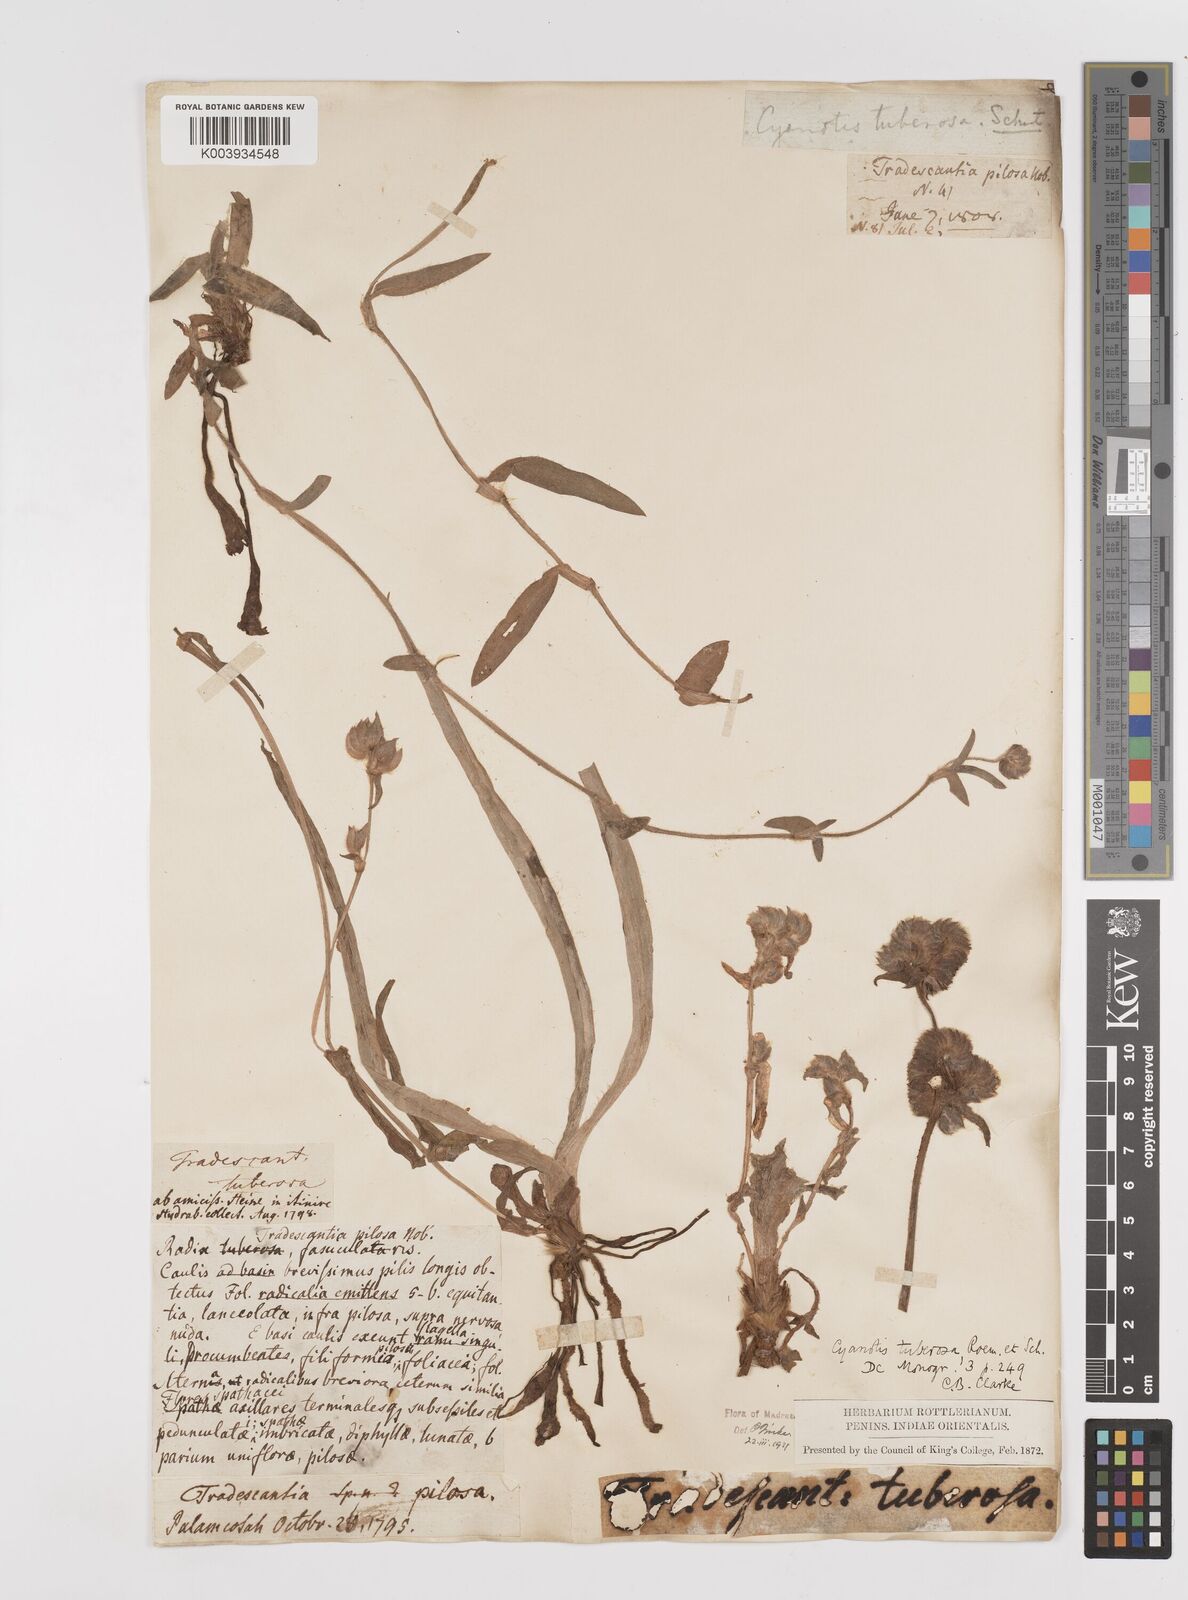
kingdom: Plantae
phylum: Tracheophyta
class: Liliopsida
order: Commelinales
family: Commelinaceae
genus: Cyanotis
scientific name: Cyanotis tuberosa
